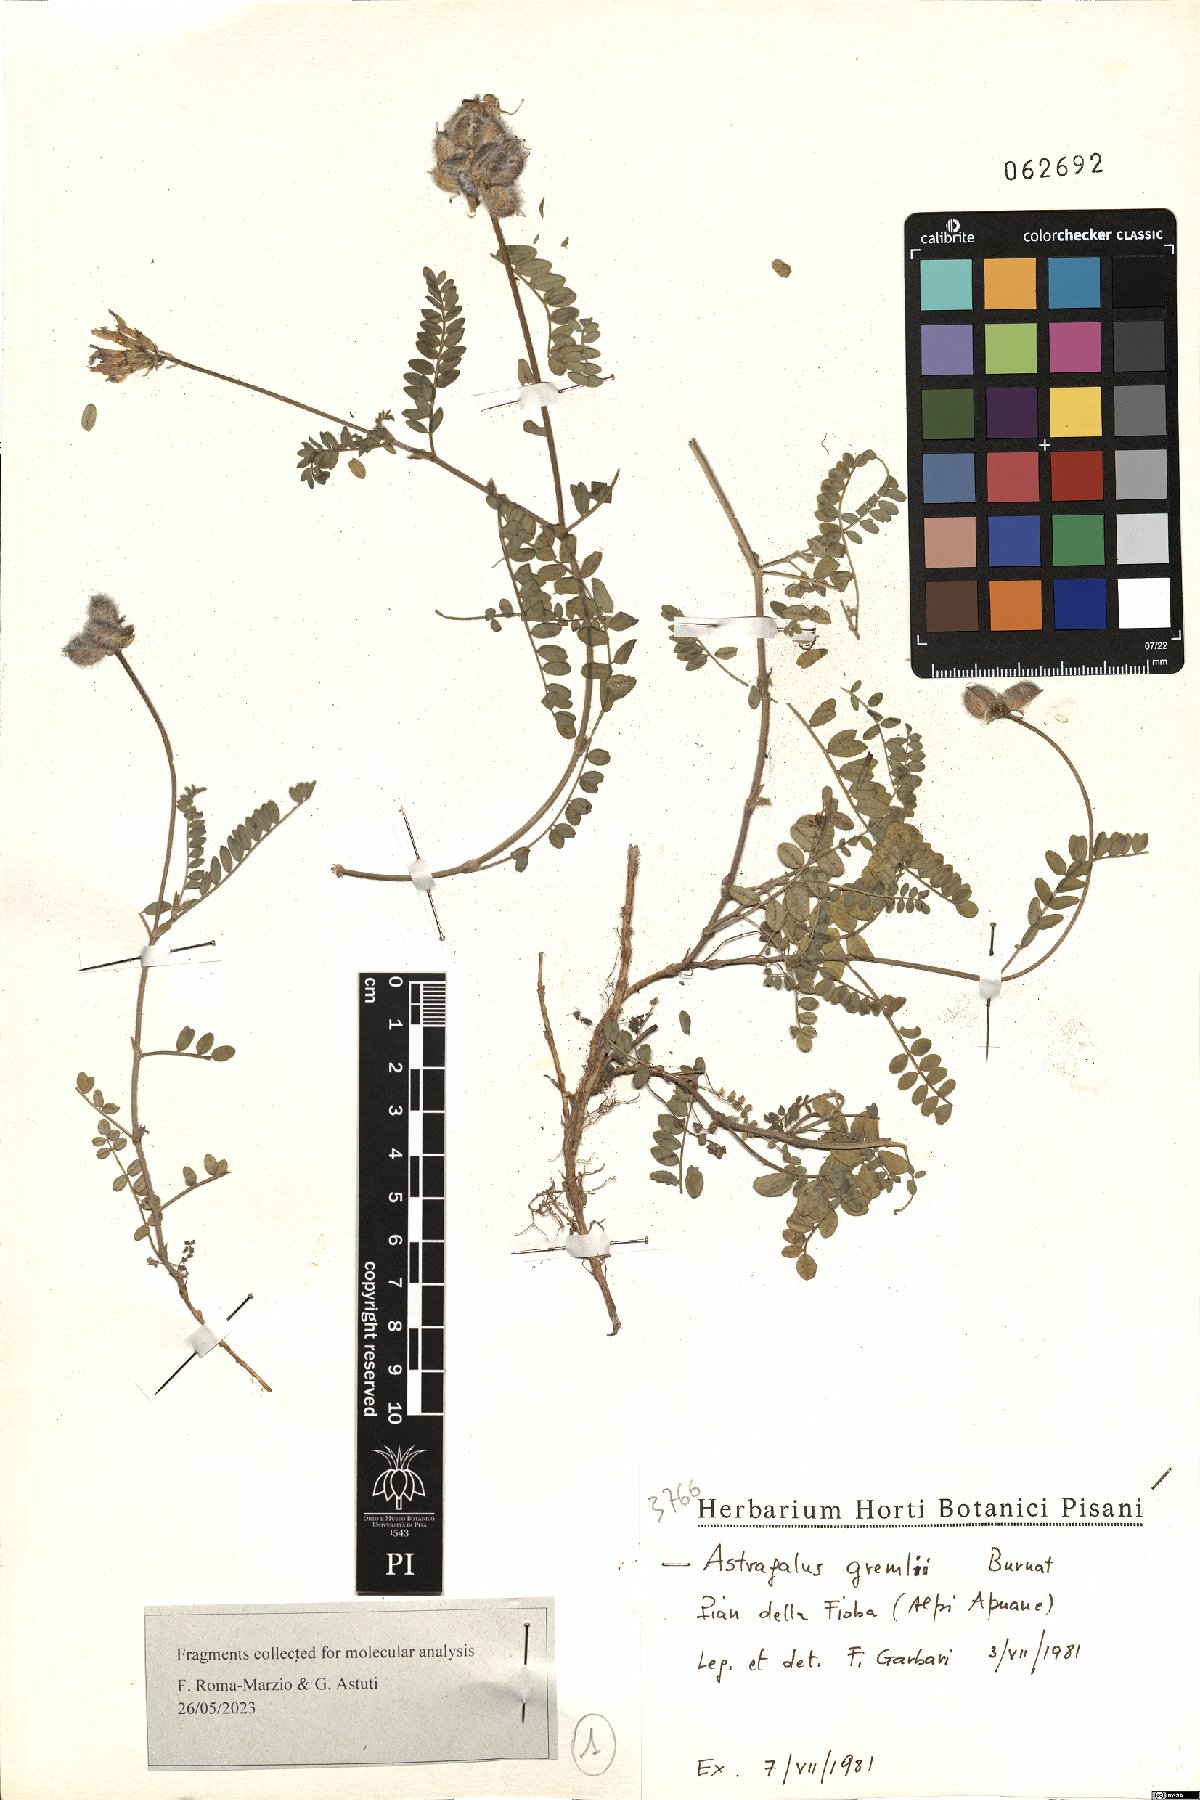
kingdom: Plantae
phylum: Tracheophyta
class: Magnoliopsida
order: Fabales
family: Fabaceae
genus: Astragalus
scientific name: Astragalus hypoglottis
